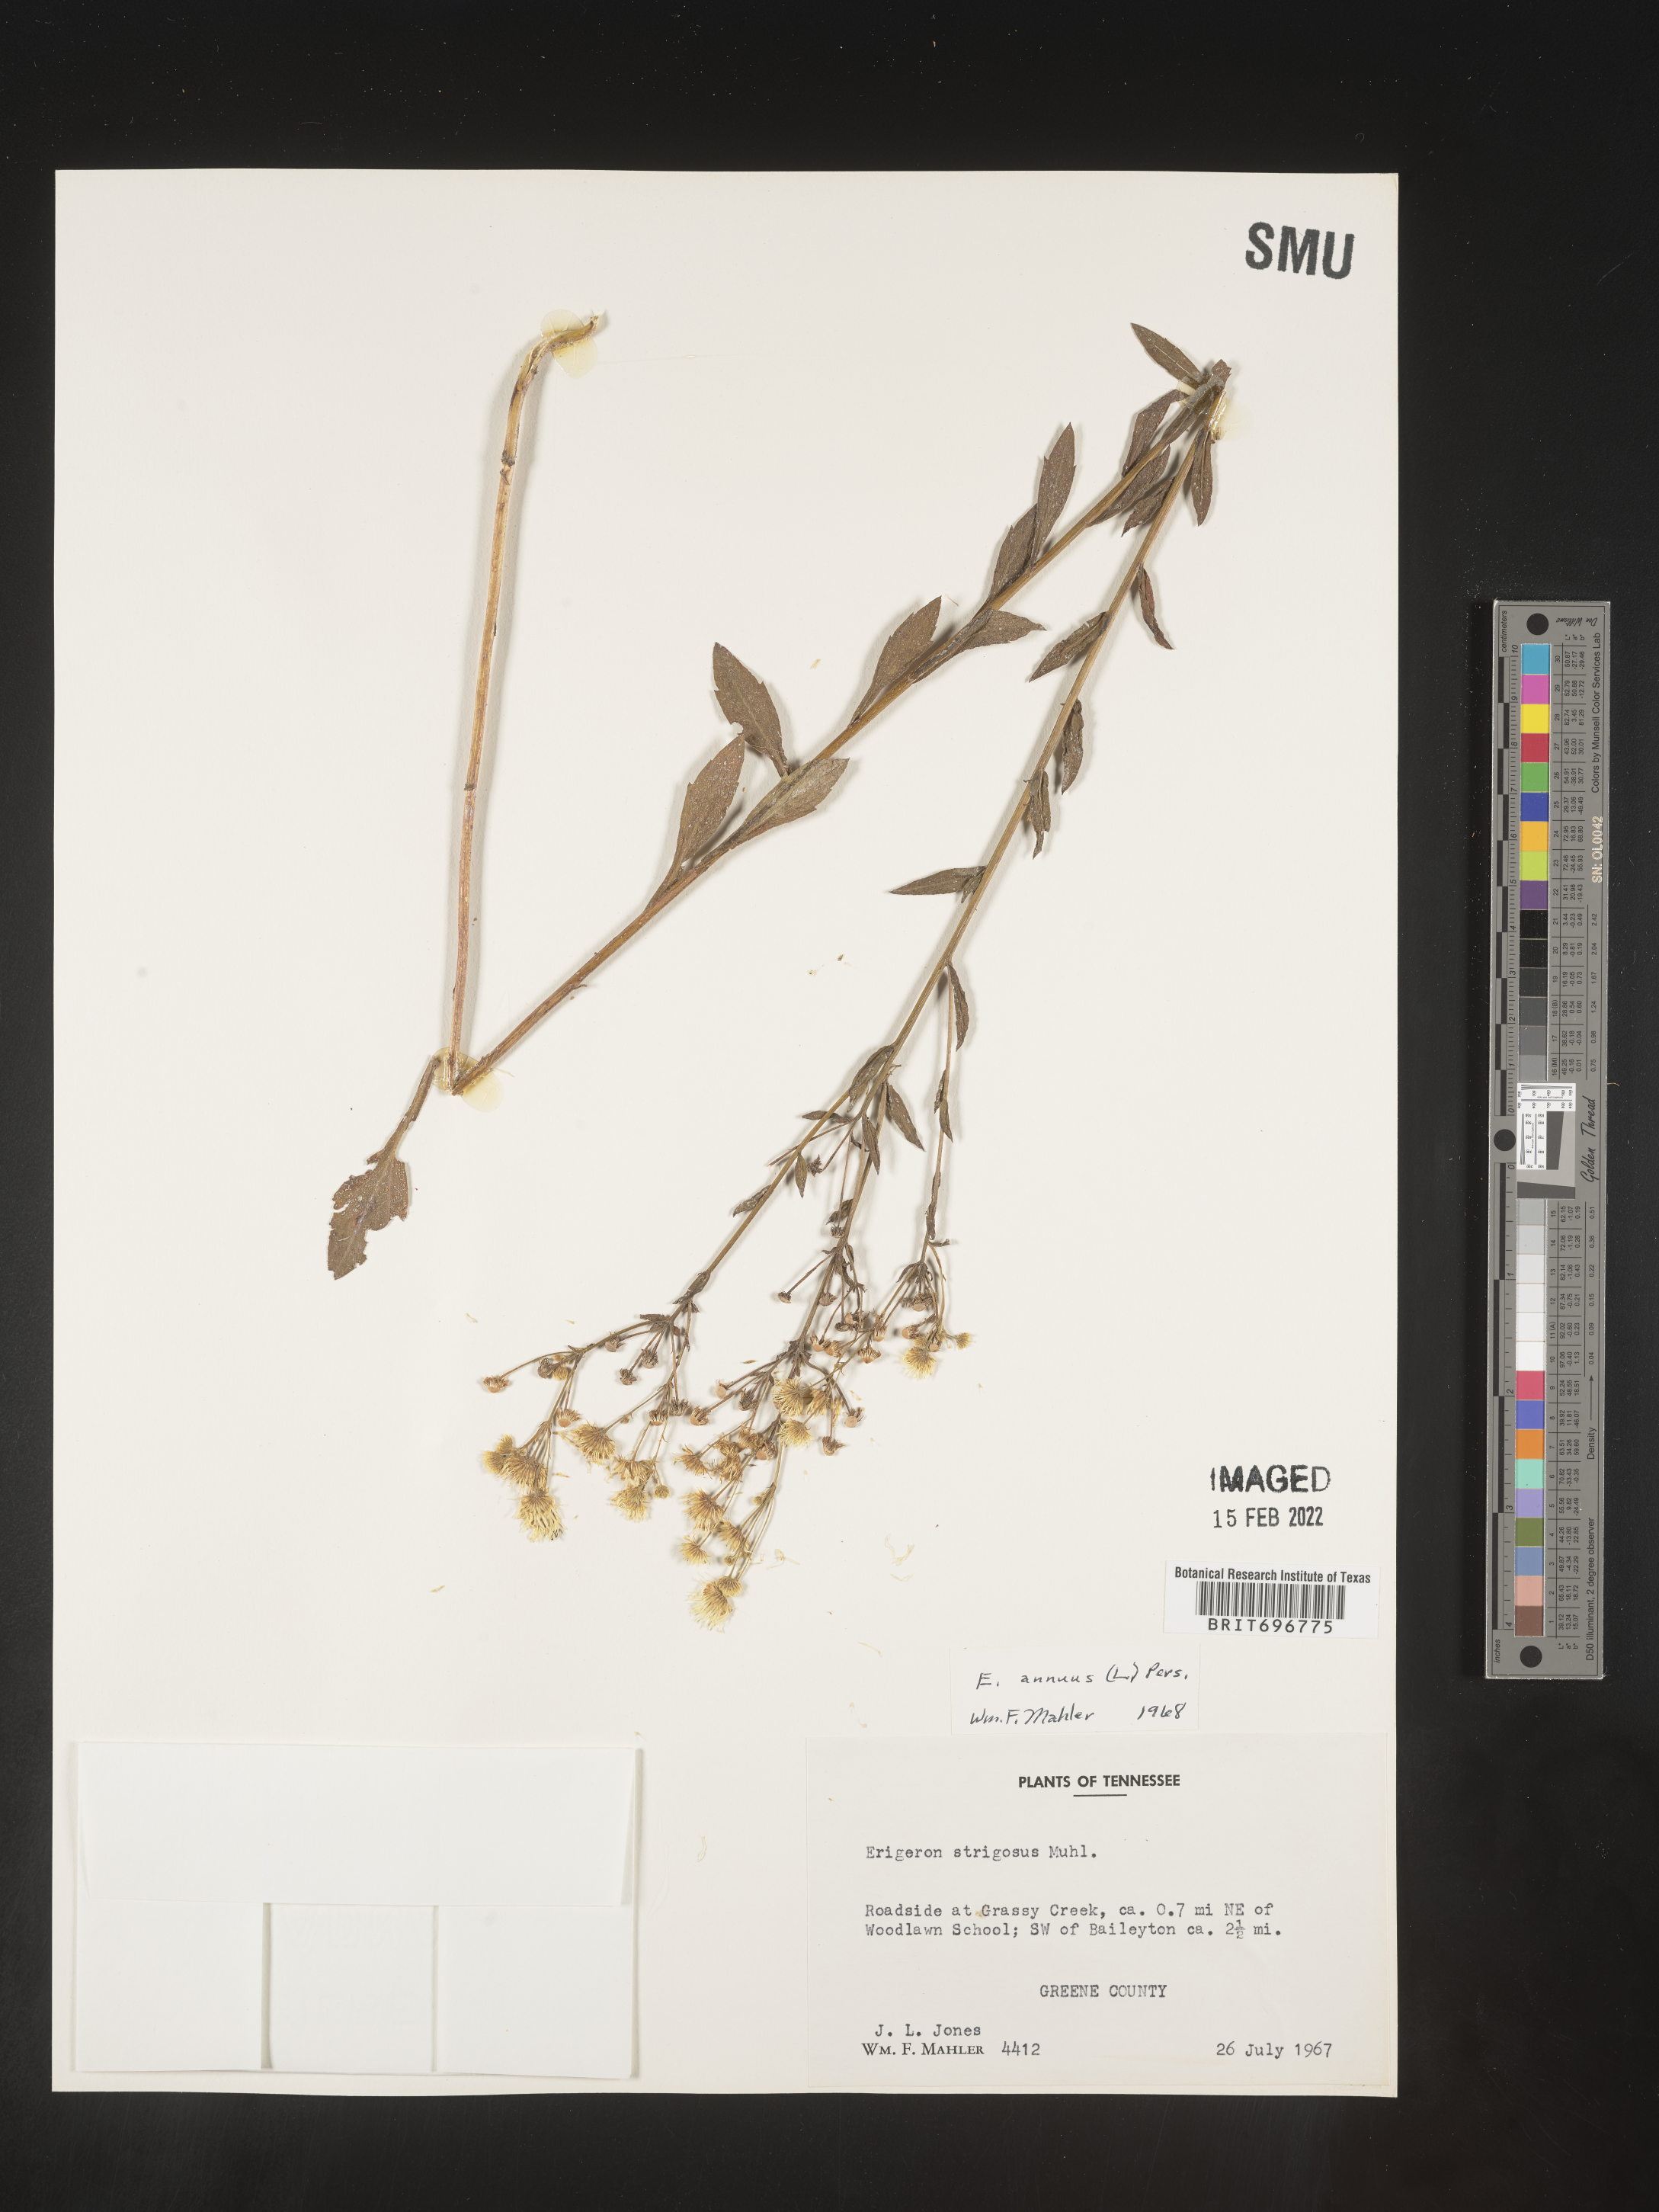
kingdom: Plantae
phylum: Tracheophyta
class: Magnoliopsida
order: Asterales
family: Asteraceae
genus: Erigeron
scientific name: Erigeron annuus
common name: Tall fleabane
